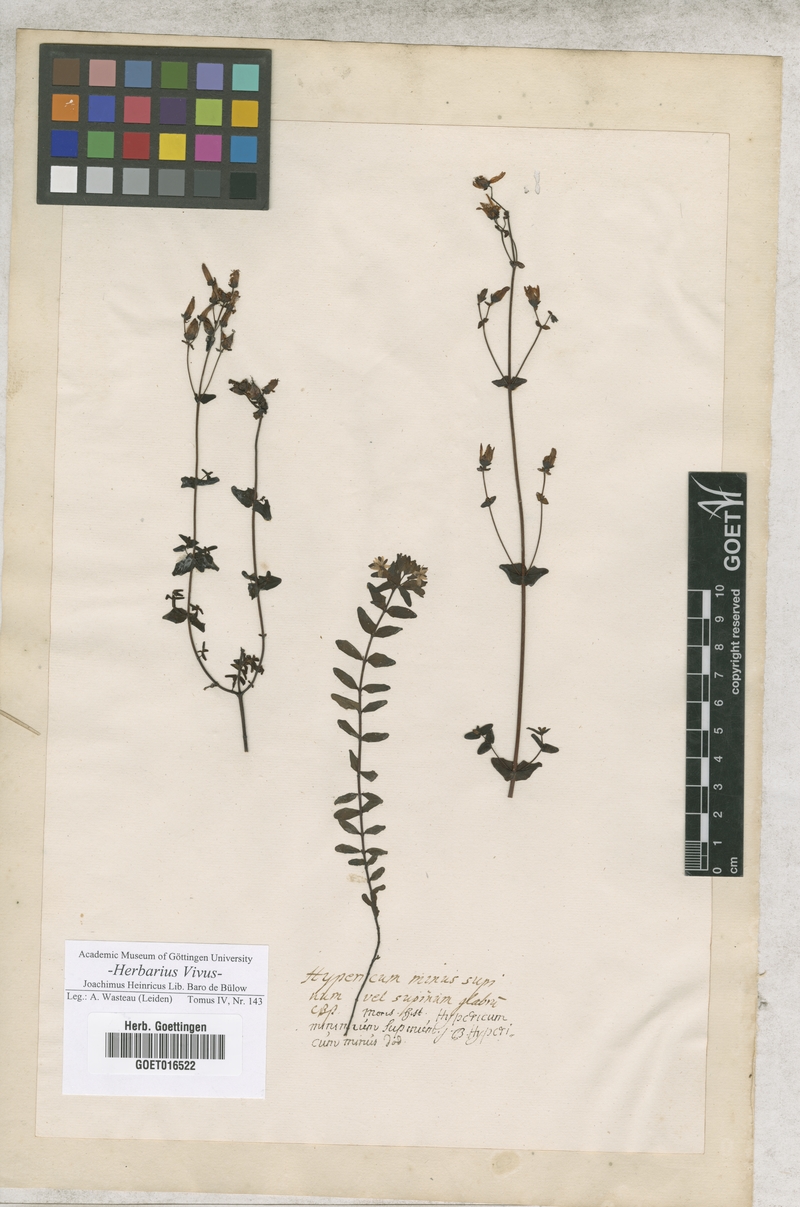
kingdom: Plantae
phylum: Tracheophyta
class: Magnoliopsida
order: Malpighiales
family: Hypericaceae
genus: Hypericum
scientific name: Hypericum humifusum
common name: Trailing st. john's-wort
